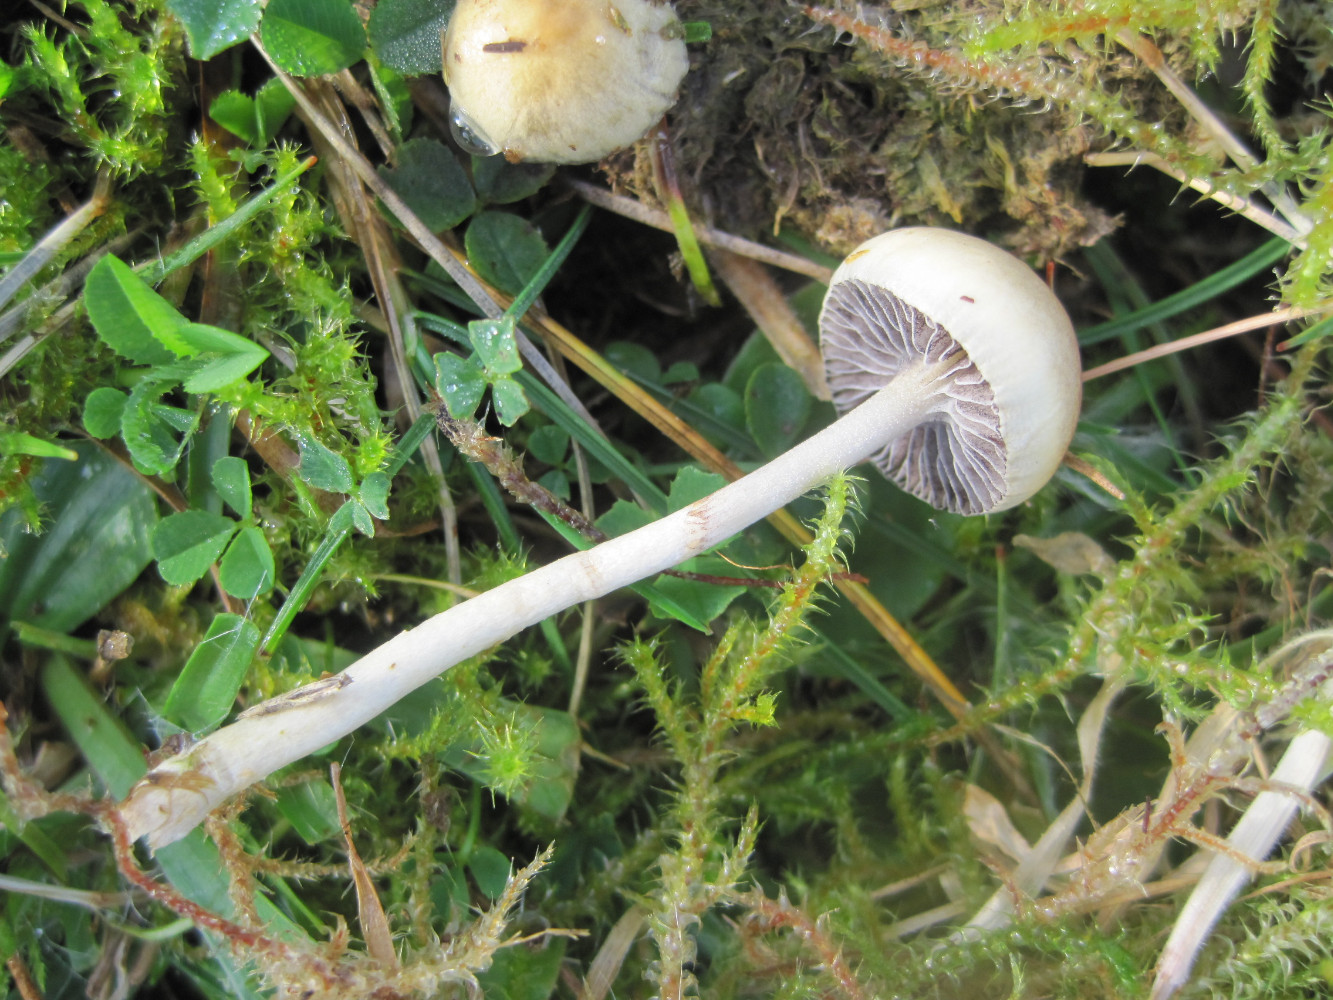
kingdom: Fungi
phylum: Basidiomycota
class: Agaricomycetes
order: Agaricales
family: Strophariaceae
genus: Protostropharia
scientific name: Protostropharia semiglobata
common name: halvkugleformet bredblad
